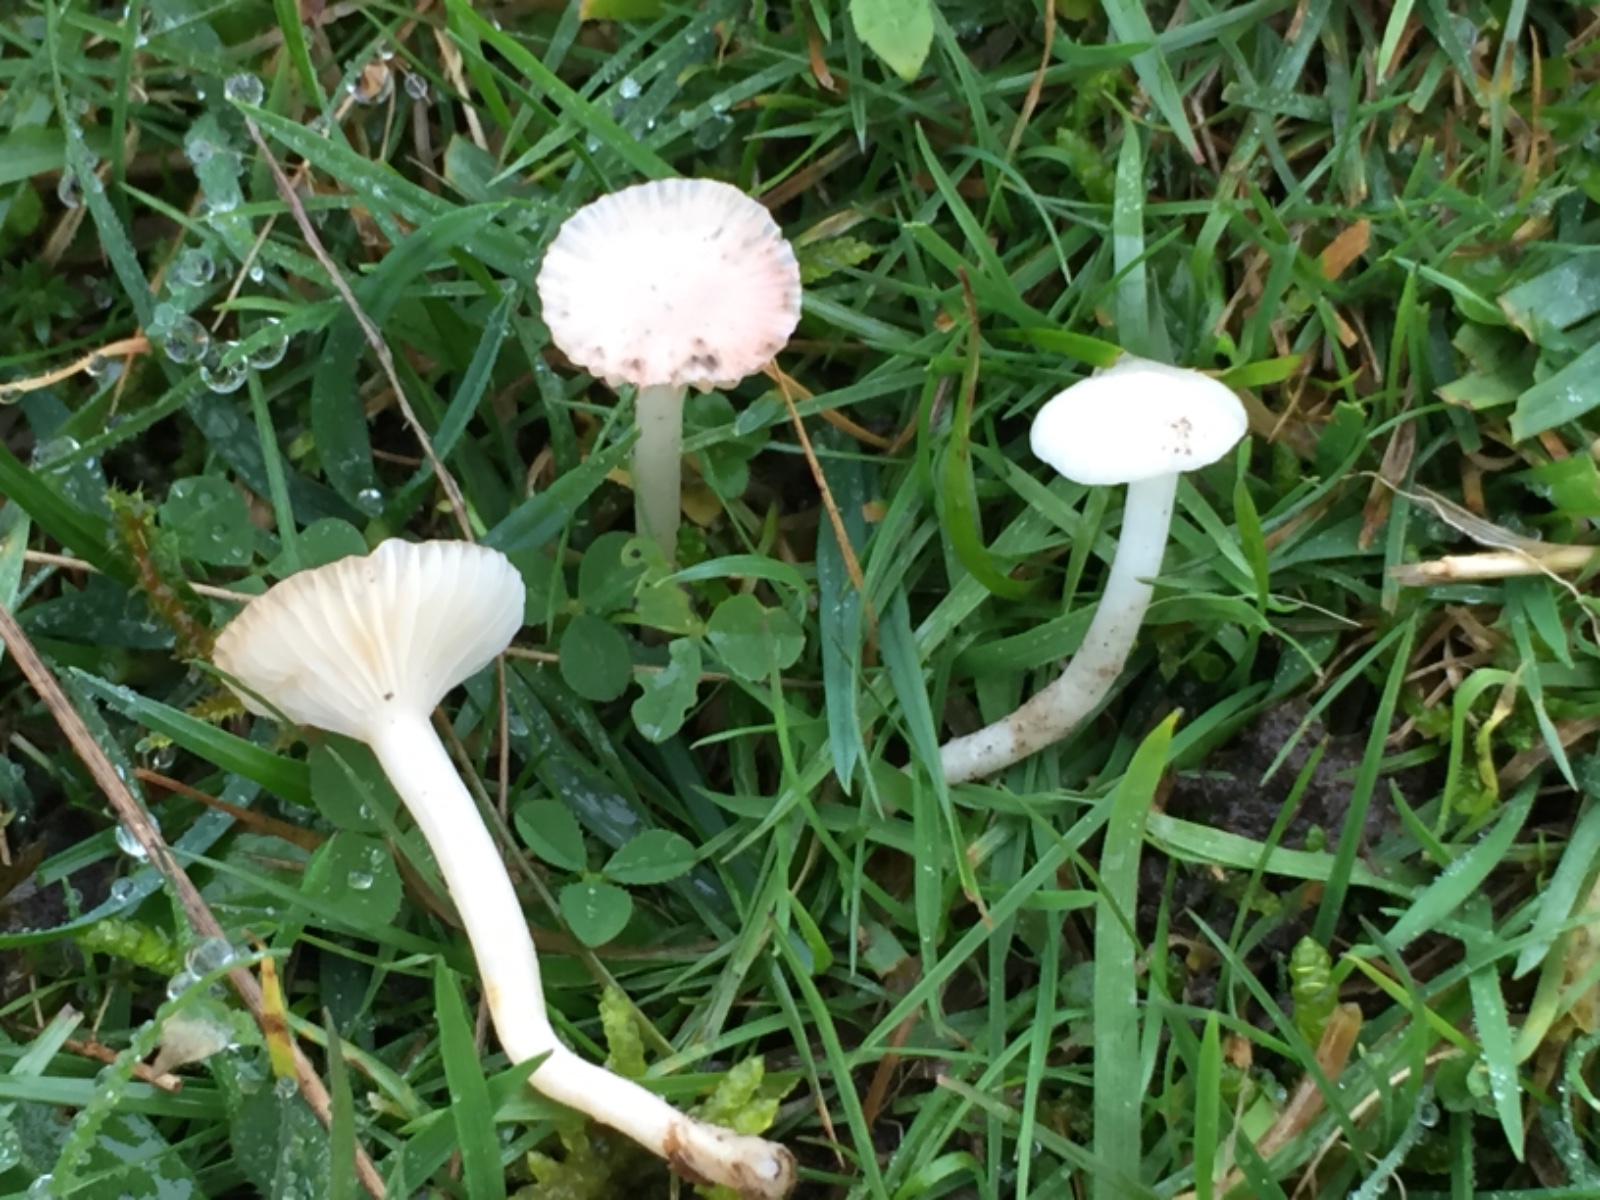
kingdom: Fungi
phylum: Basidiomycota
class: Agaricomycetes
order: Agaricales
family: Hygrophoraceae
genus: Cuphophyllus
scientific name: Cuphophyllus virgineus
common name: snehvid vokshat
